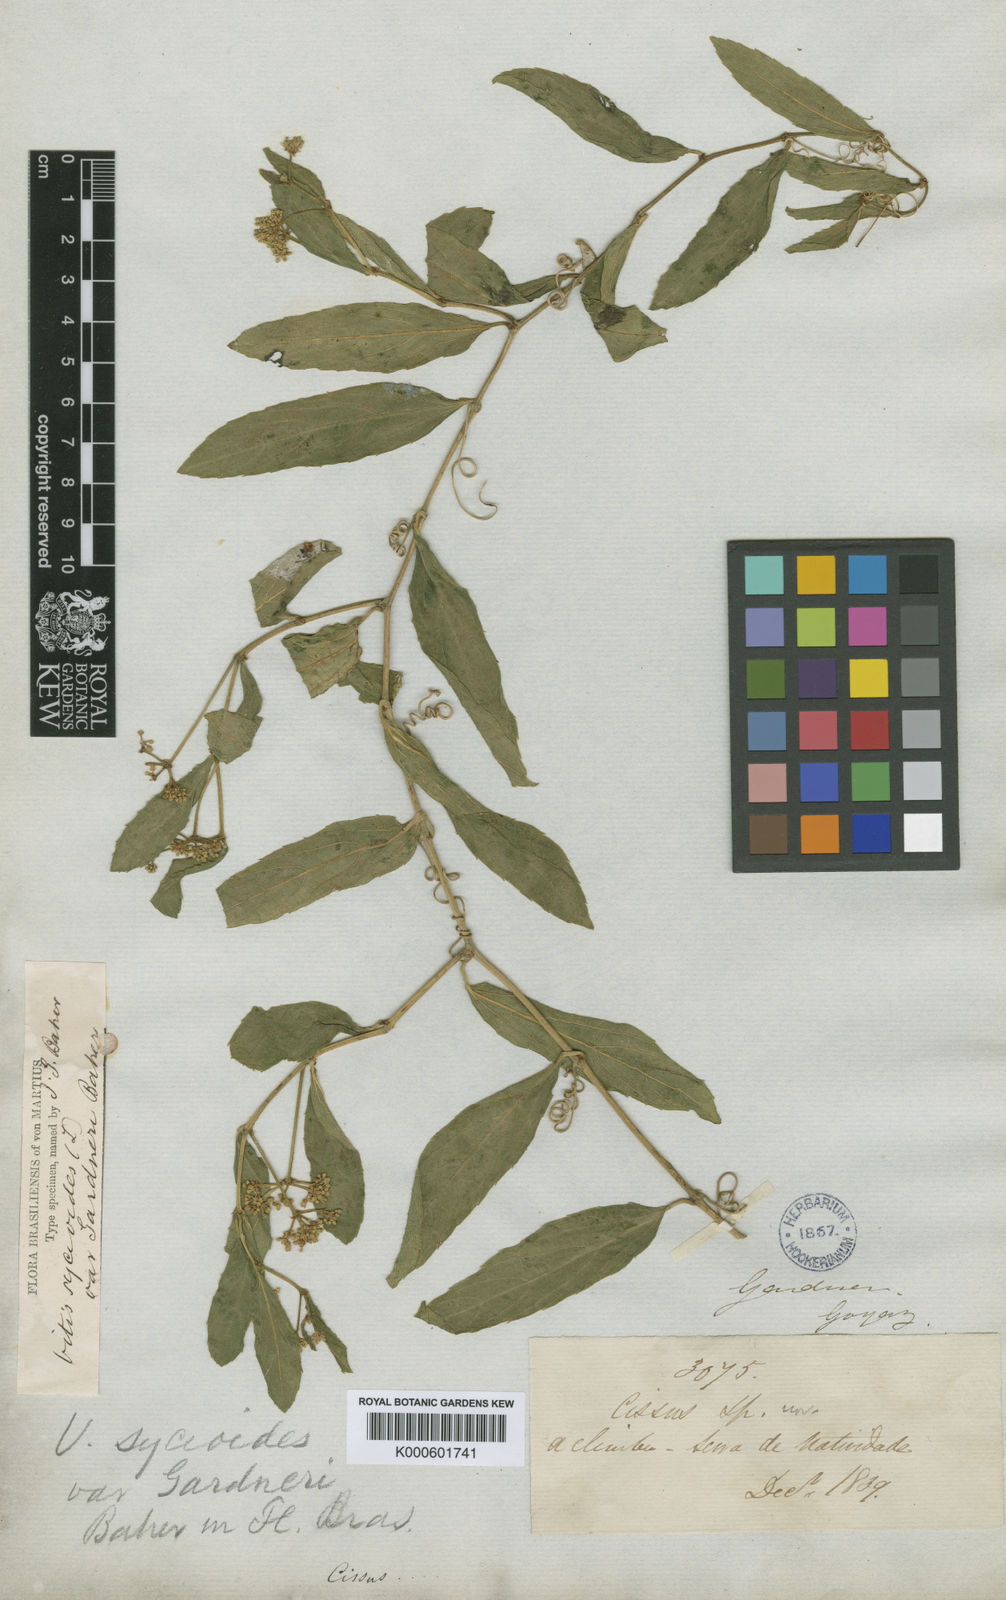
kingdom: Plantae
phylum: Tracheophyta
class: Magnoliopsida
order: Vitales
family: Vitaceae
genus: Cissus
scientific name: Cissus campestris
